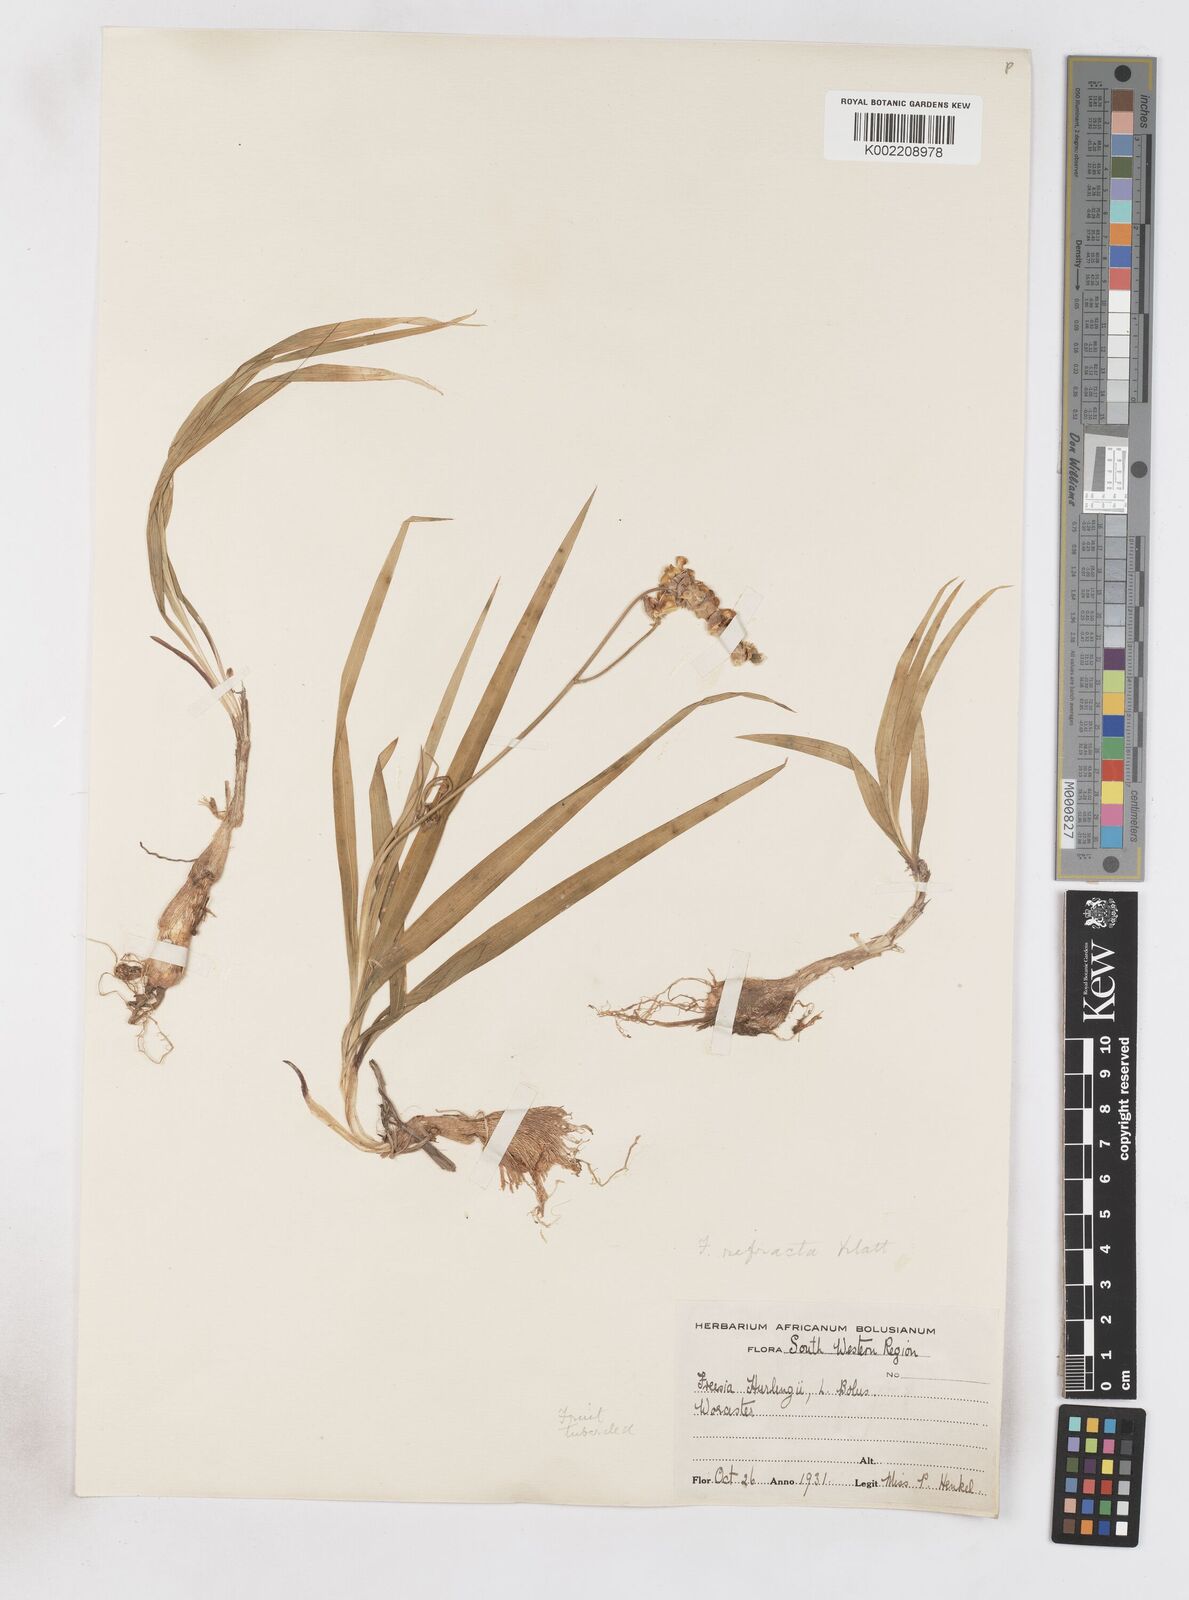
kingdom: Plantae
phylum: Tracheophyta
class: Liliopsida
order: Asparagales
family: Iridaceae
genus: Freesia
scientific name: Freesia refracta
